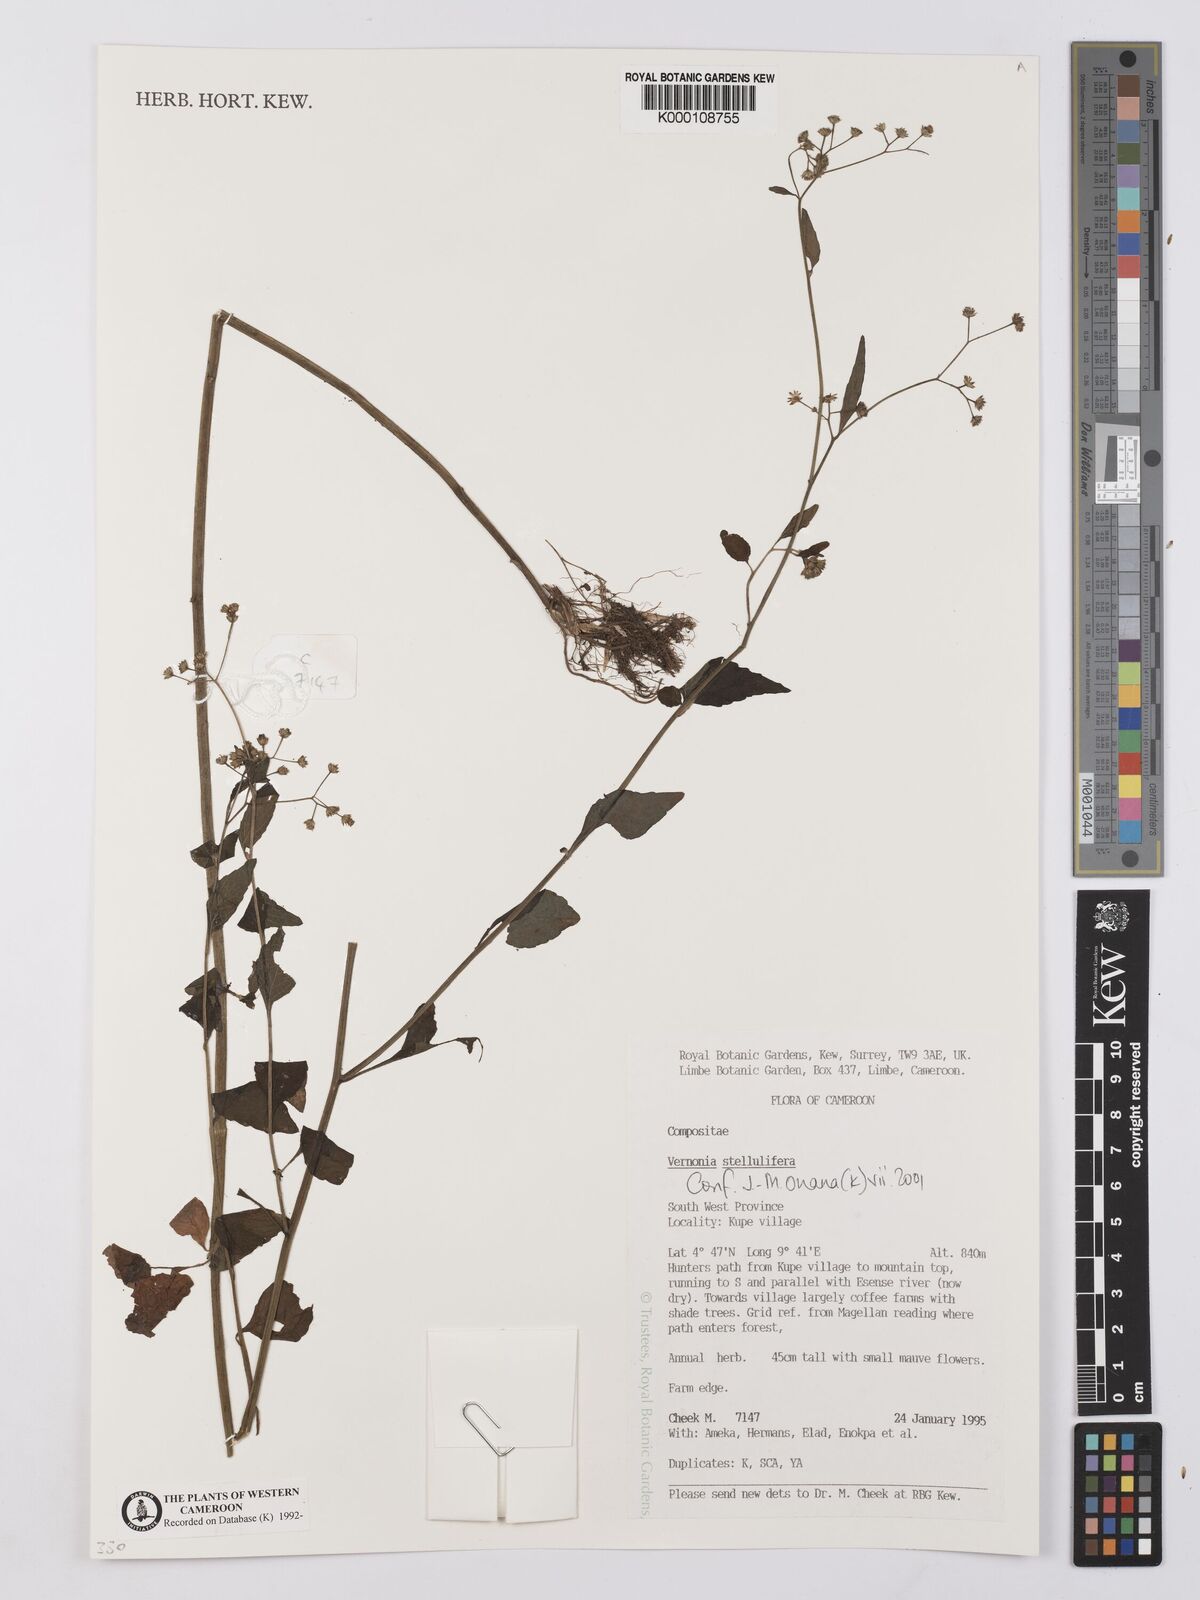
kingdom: Plantae
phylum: Tracheophyta
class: Magnoliopsida
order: Asterales
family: Asteraceae
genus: Cyanthillium
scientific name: Cyanthillium stelluliferum
